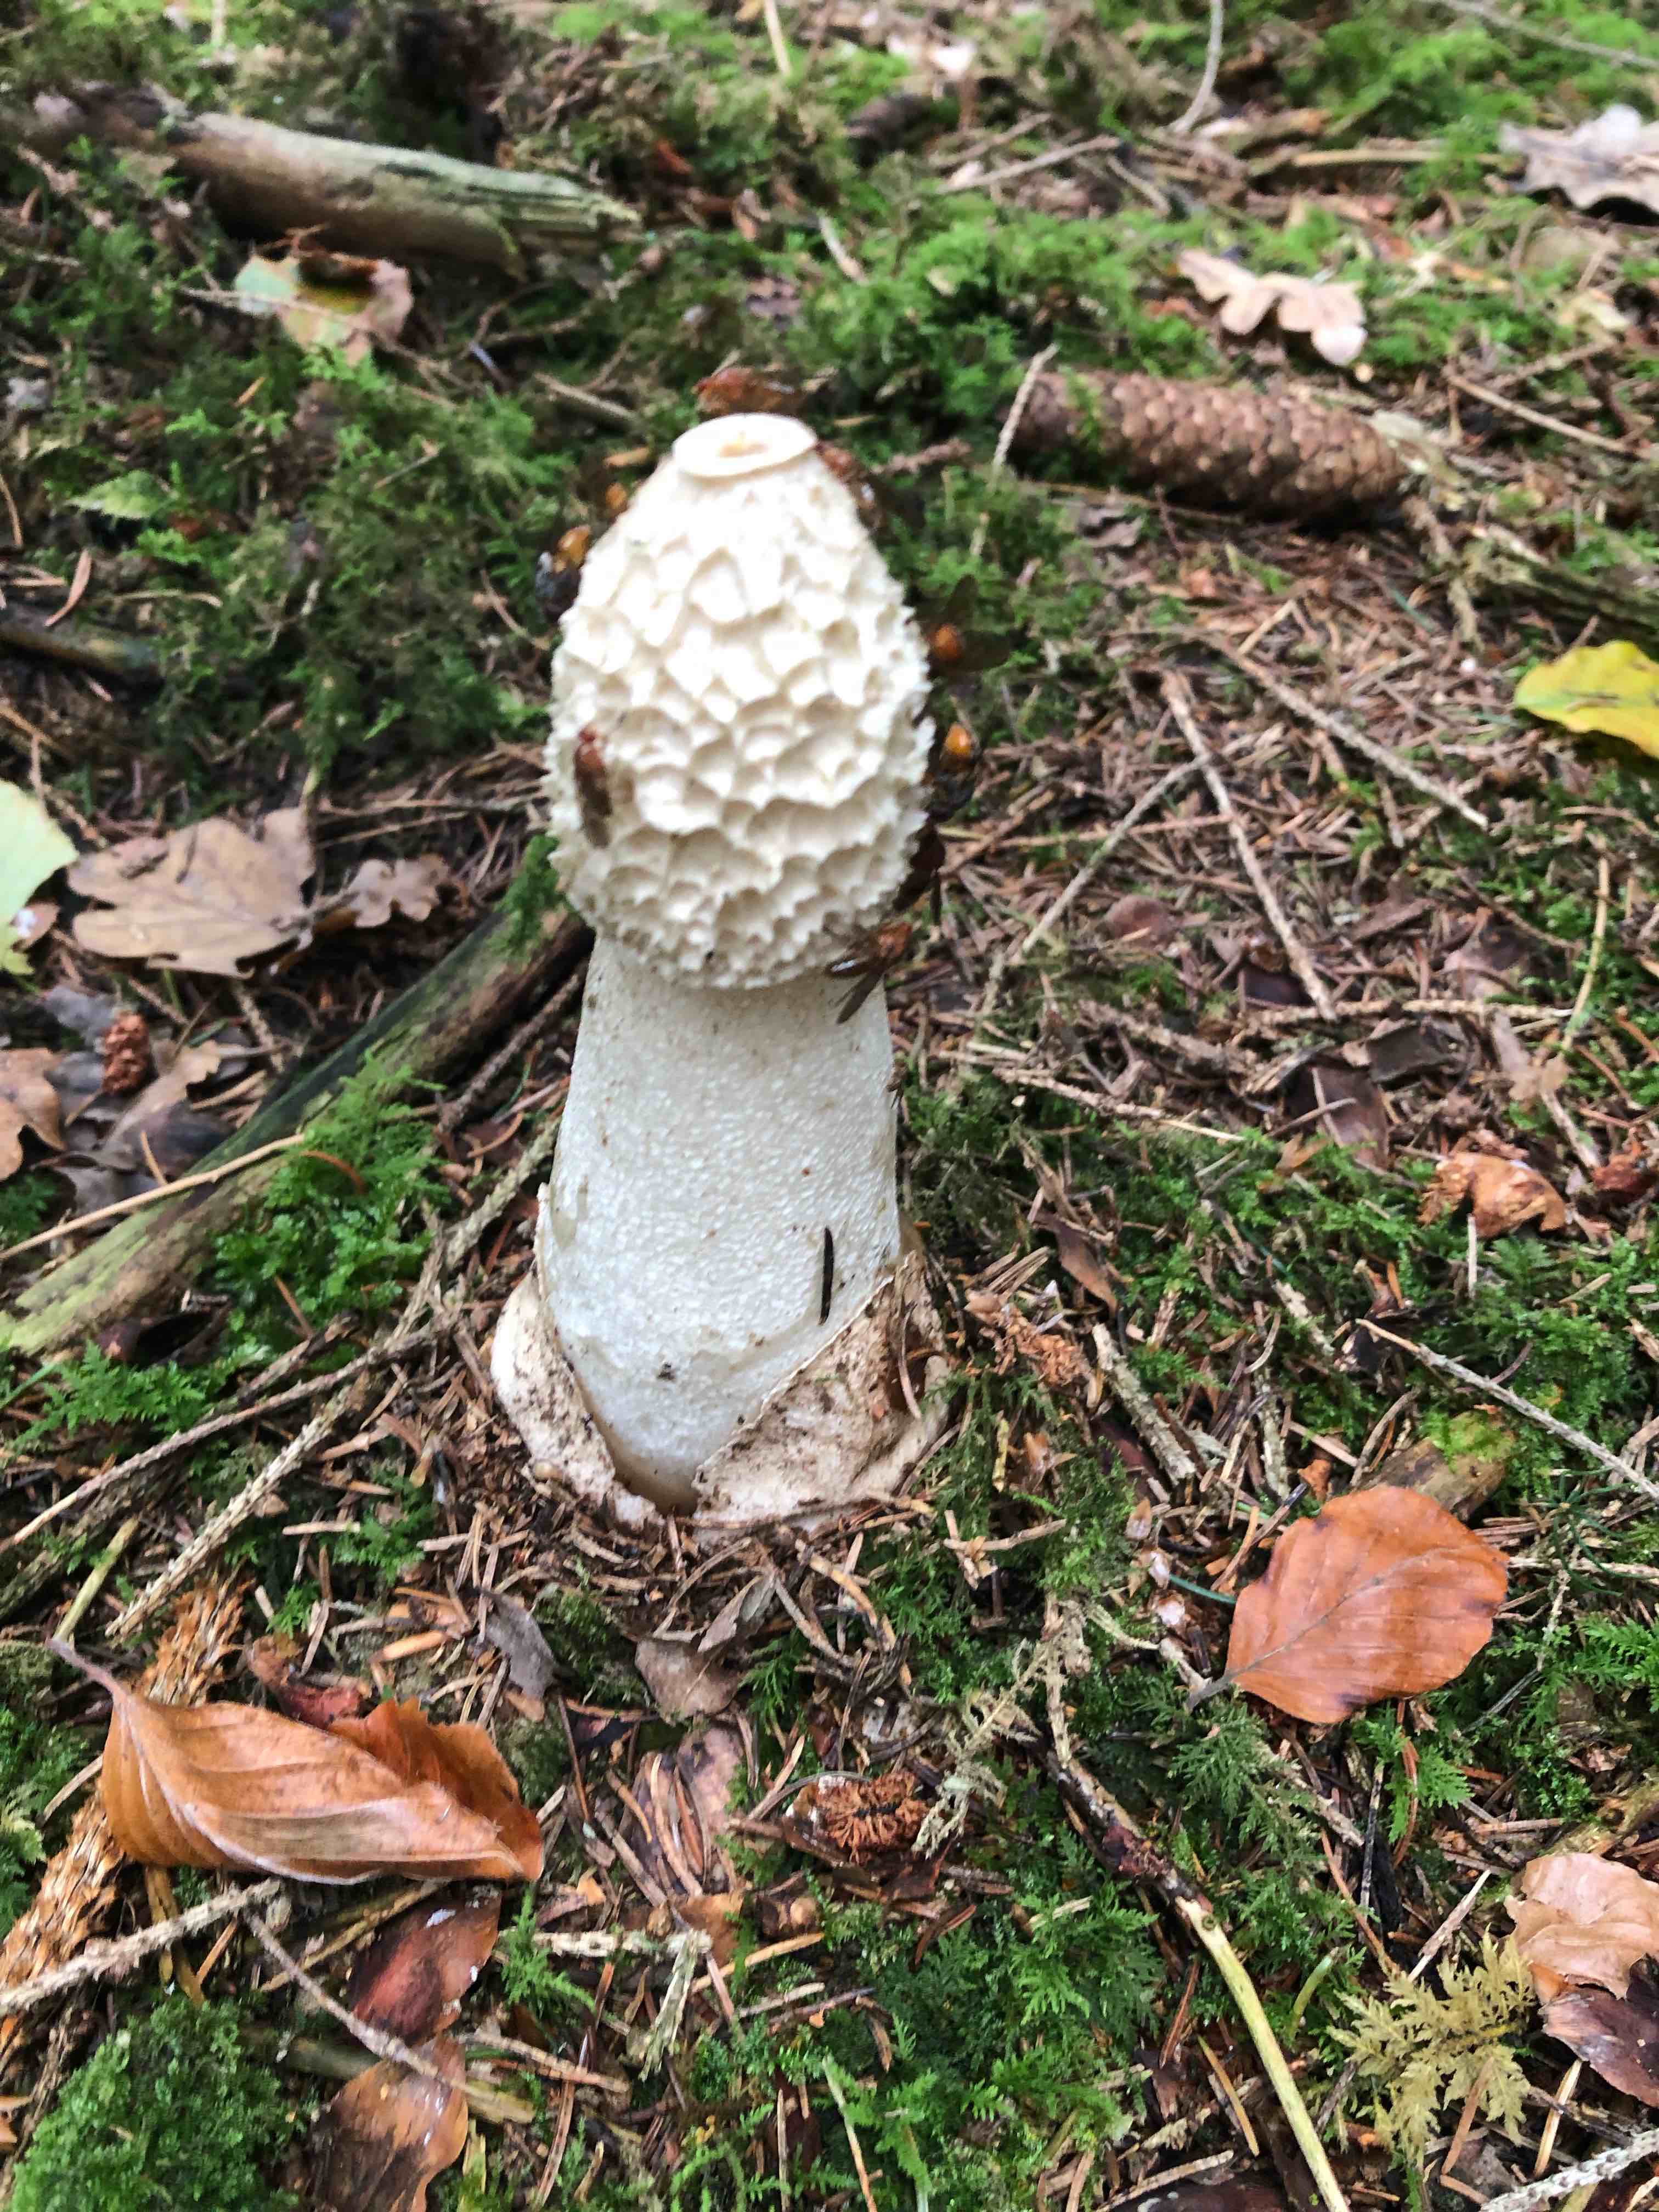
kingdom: Fungi
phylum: Basidiomycota
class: Agaricomycetes
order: Phallales
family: Phallaceae
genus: Phallus
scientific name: Phallus impudicus
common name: almindelig stinksvamp
